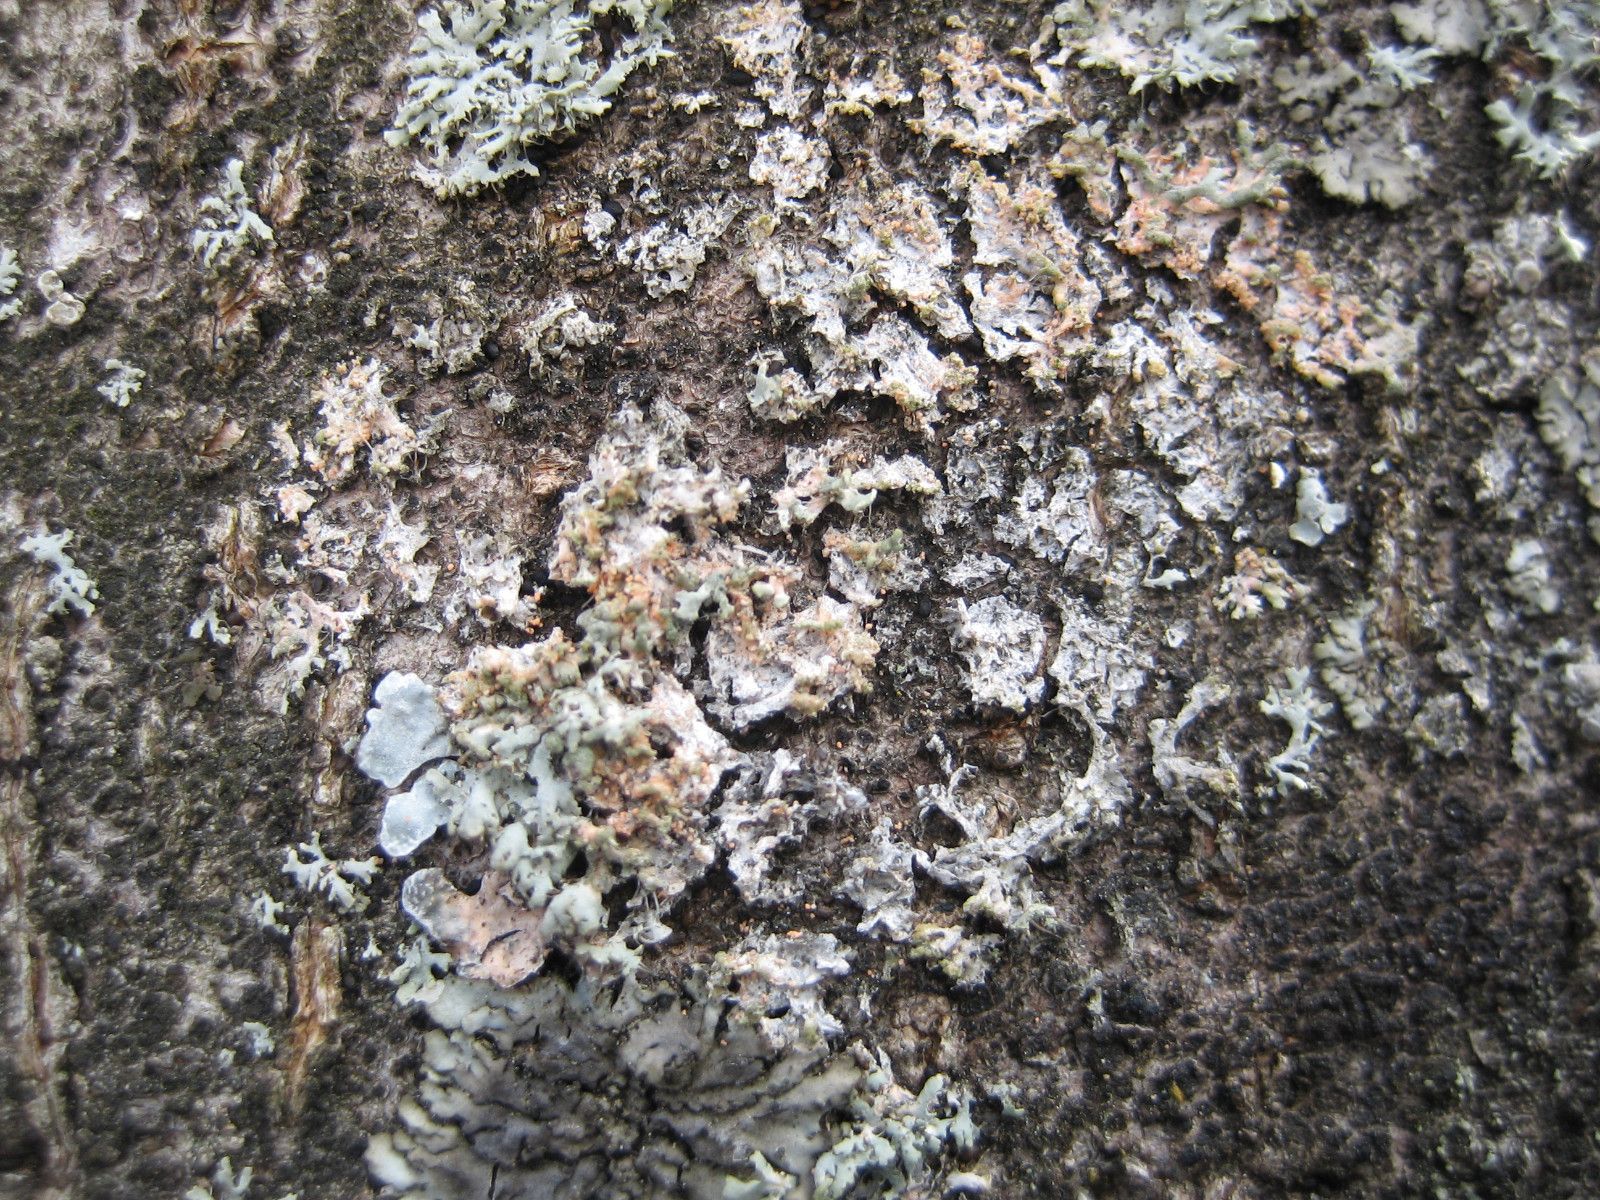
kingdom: Fungi
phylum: Basidiomycota
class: Agaricomycetes
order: Corticiales
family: Corticiaceae
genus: Erythricium
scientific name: Erythricium aurantiacum
